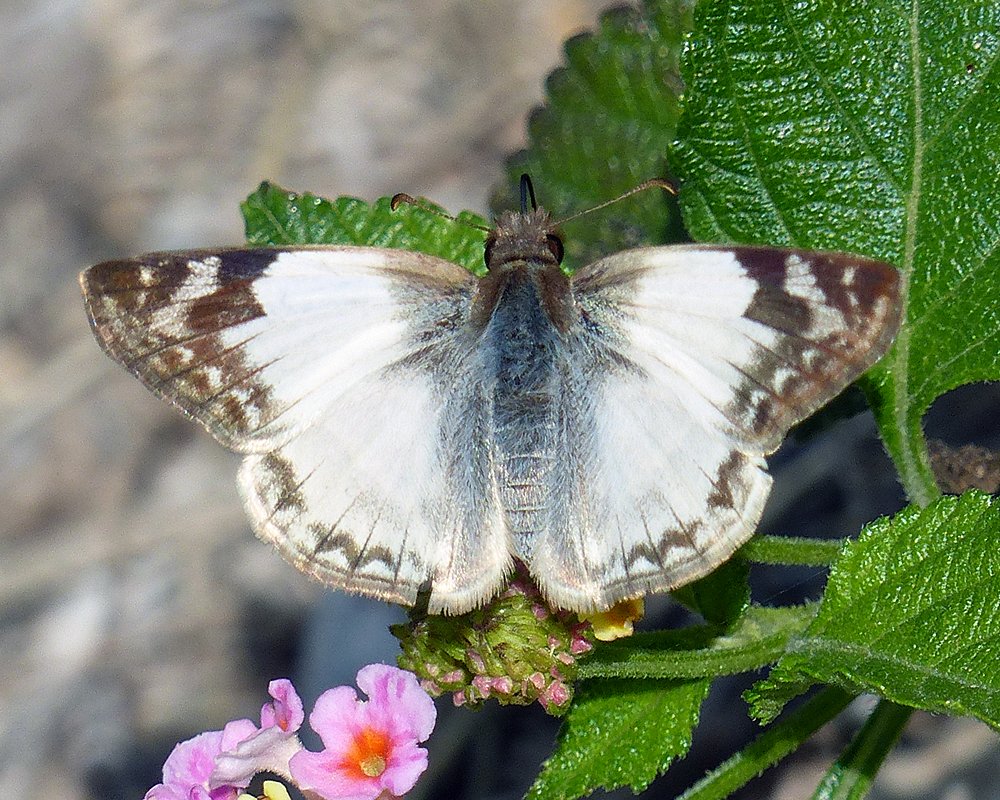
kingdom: Animalia
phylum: Arthropoda
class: Insecta
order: Lepidoptera
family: Hesperiidae
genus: Heliopetes
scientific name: Heliopetes laviana
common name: Laviana White-Skipper
